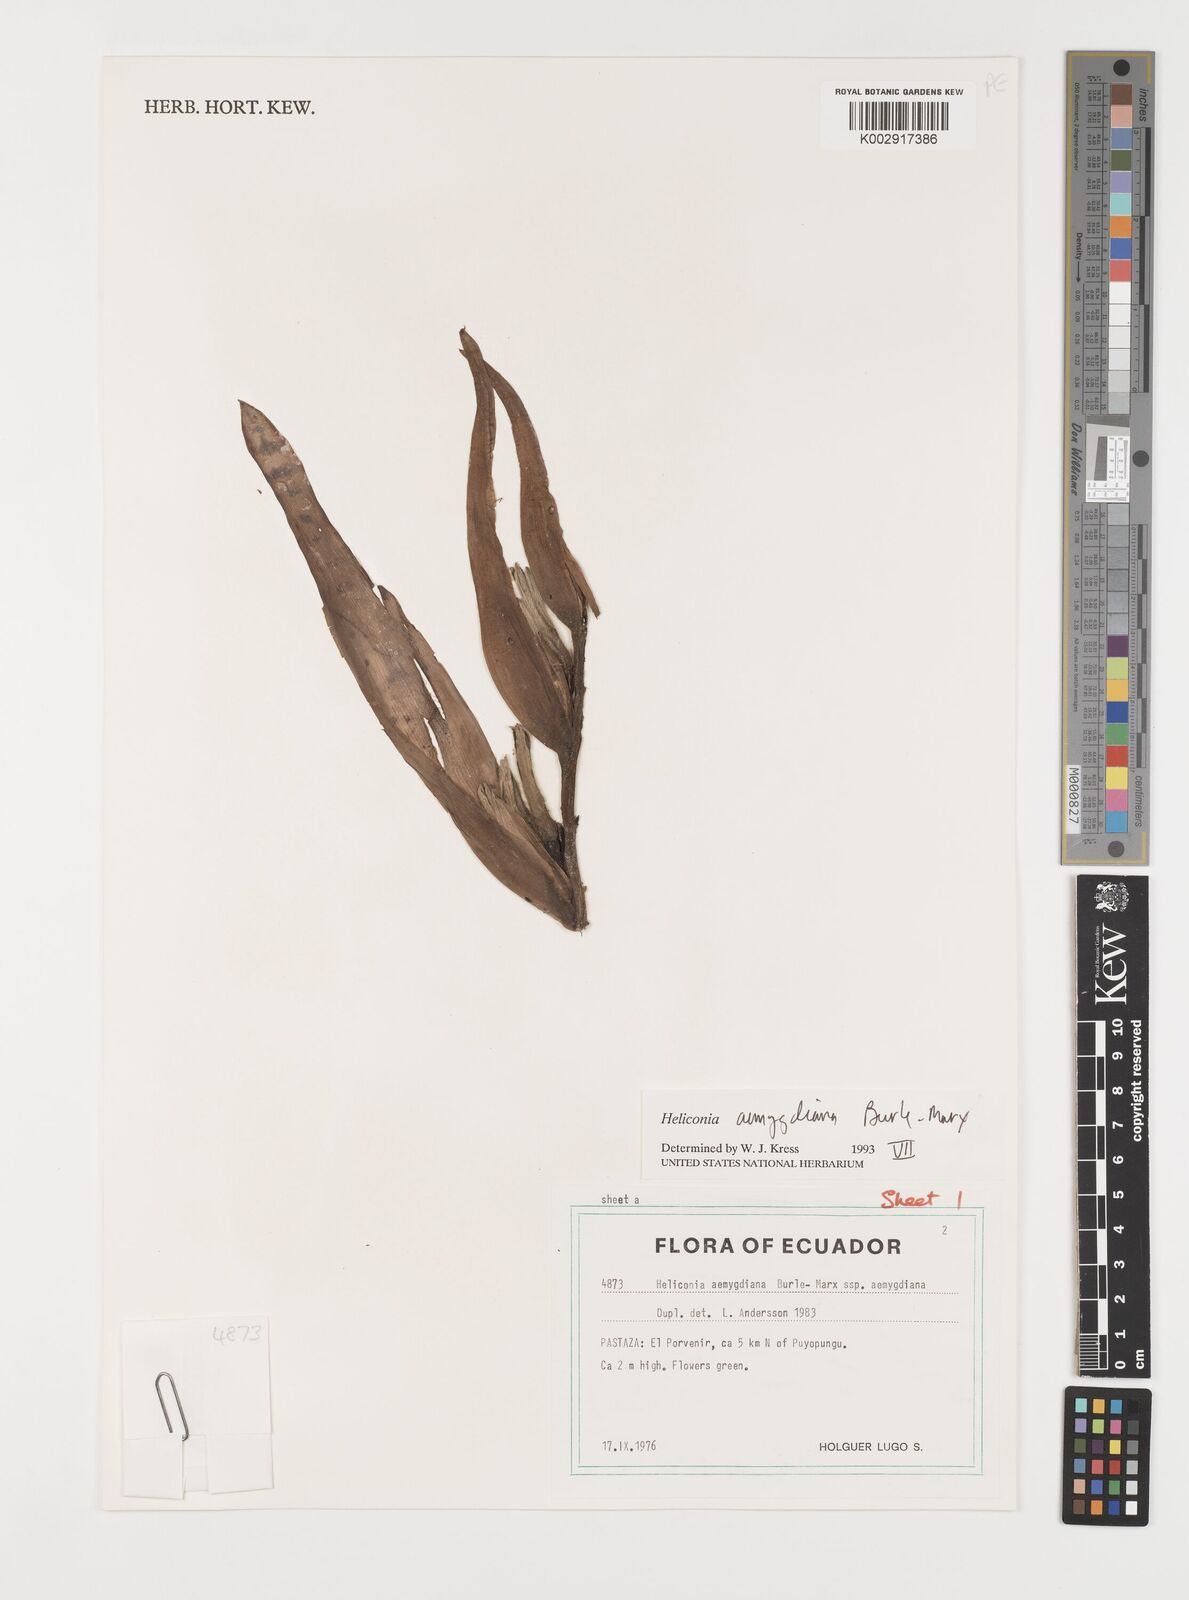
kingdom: Plantae
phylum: Tracheophyta
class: Liliopsida
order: Zingiberales
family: Heliconiaceae
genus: Heliconia
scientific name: Heliconia aemygdiana
